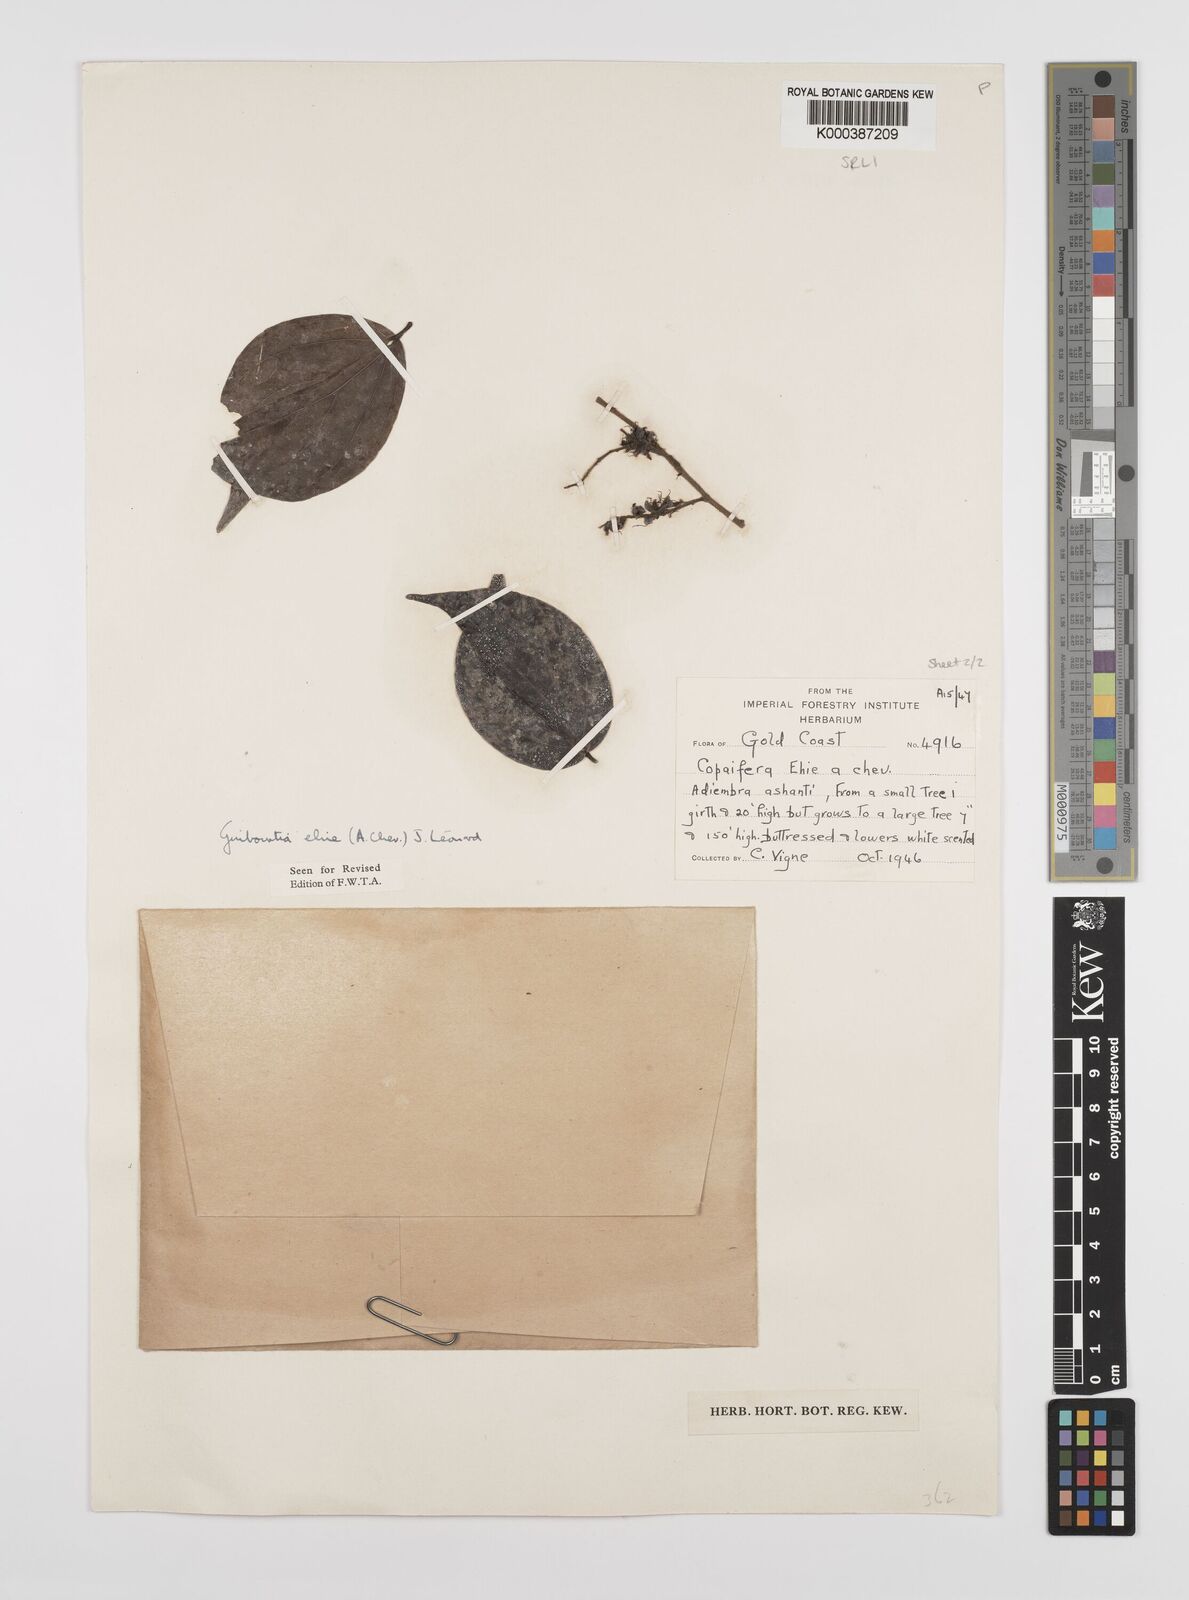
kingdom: Plantae
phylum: Tracheophyta
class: Magnoliopsida
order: Fabales
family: Fabaceae
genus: Guibourtia
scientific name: Guibourtia ehie
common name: Black hyedua
